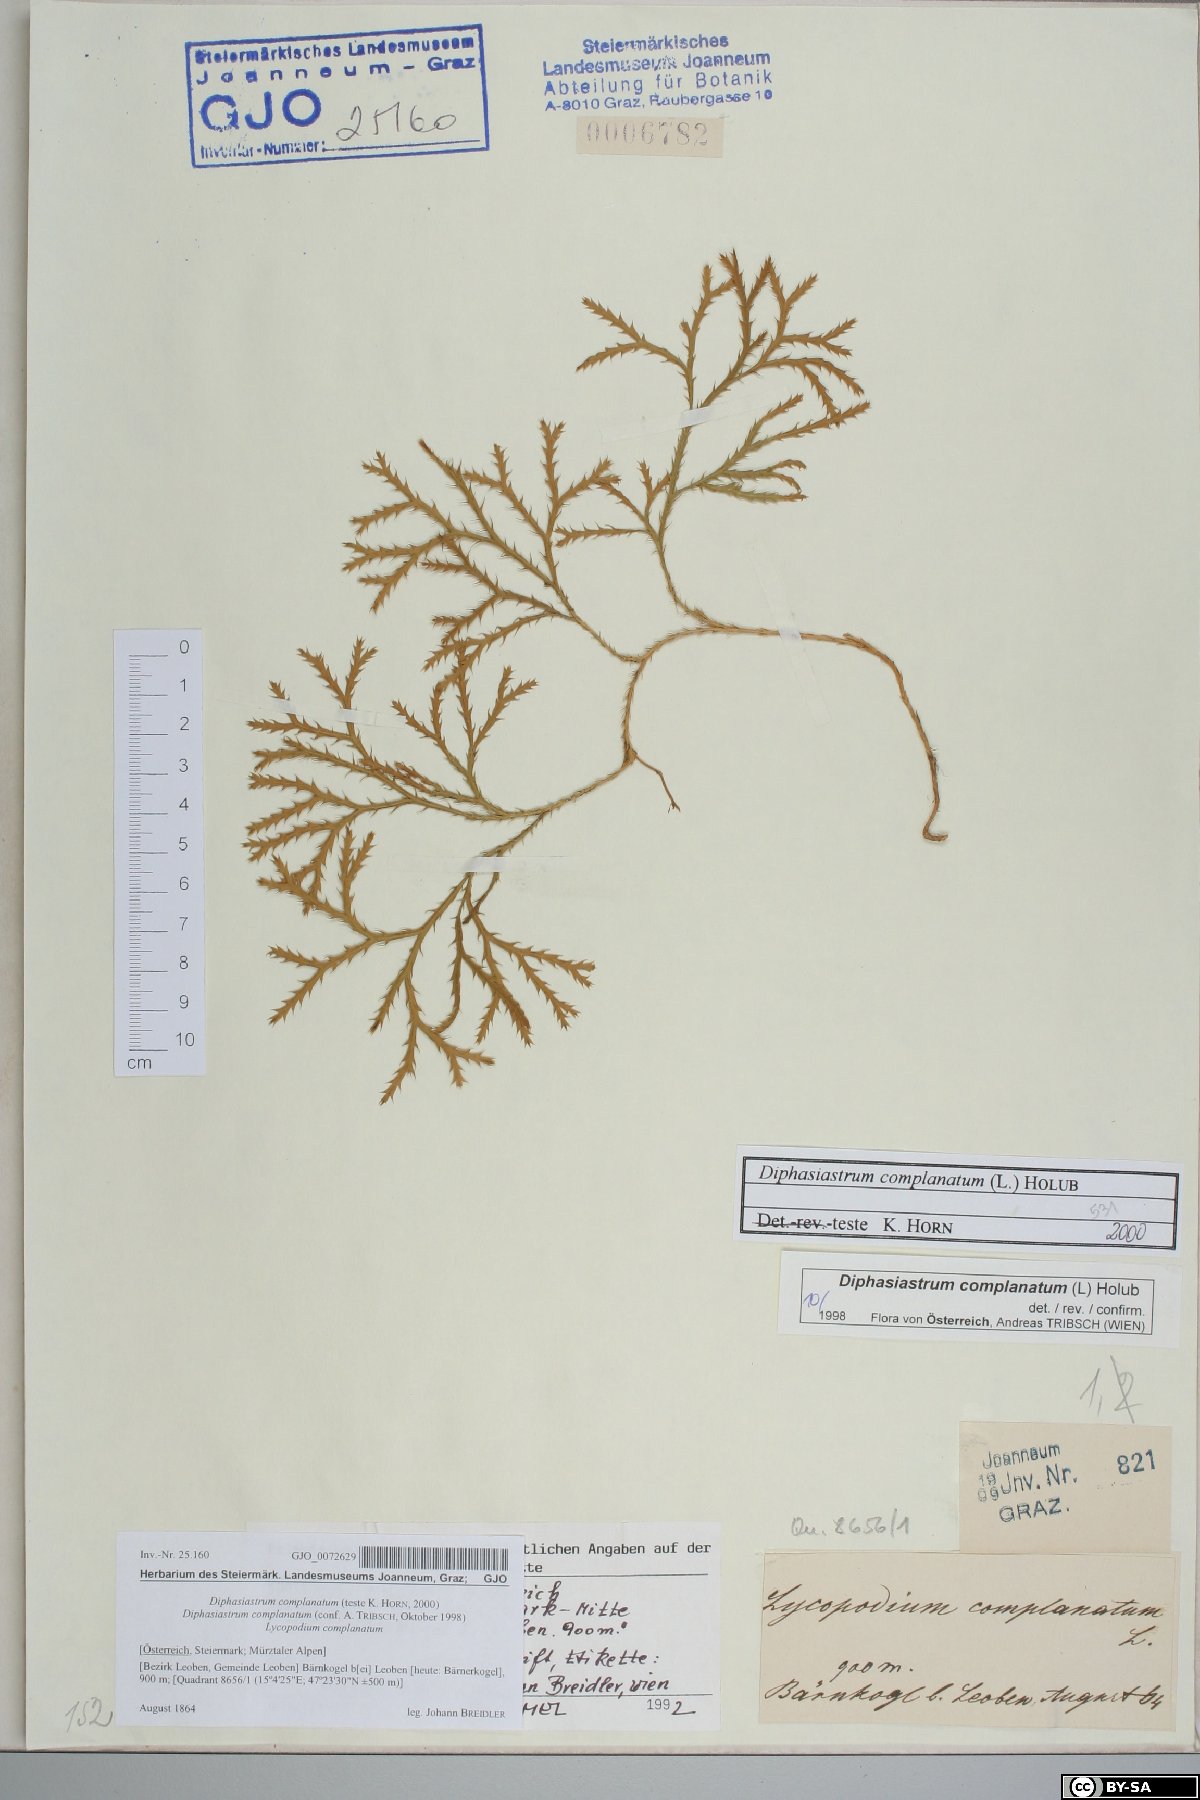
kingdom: Plantae
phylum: Tracheophyta
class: Lycopodiopsida
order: Lycopodiales
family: Lycopodiaceae
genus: Diphasiastrum
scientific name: Diphasiastrum complanatum
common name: Northern running-pine
